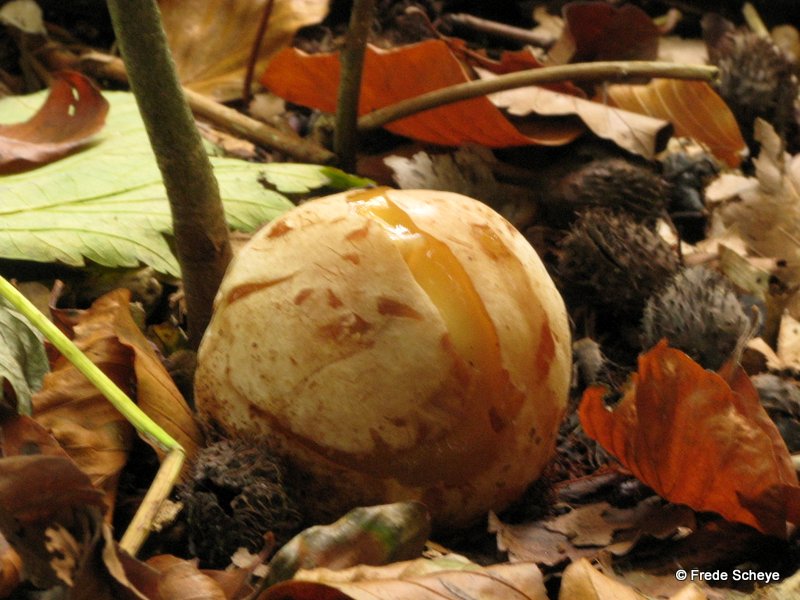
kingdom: Fungi
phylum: Basidiomycota
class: Agaricomycetes
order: Phallales
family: Phallaceae
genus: Phallus
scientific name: Phallus impudicus
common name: almindelig stinksvamp
